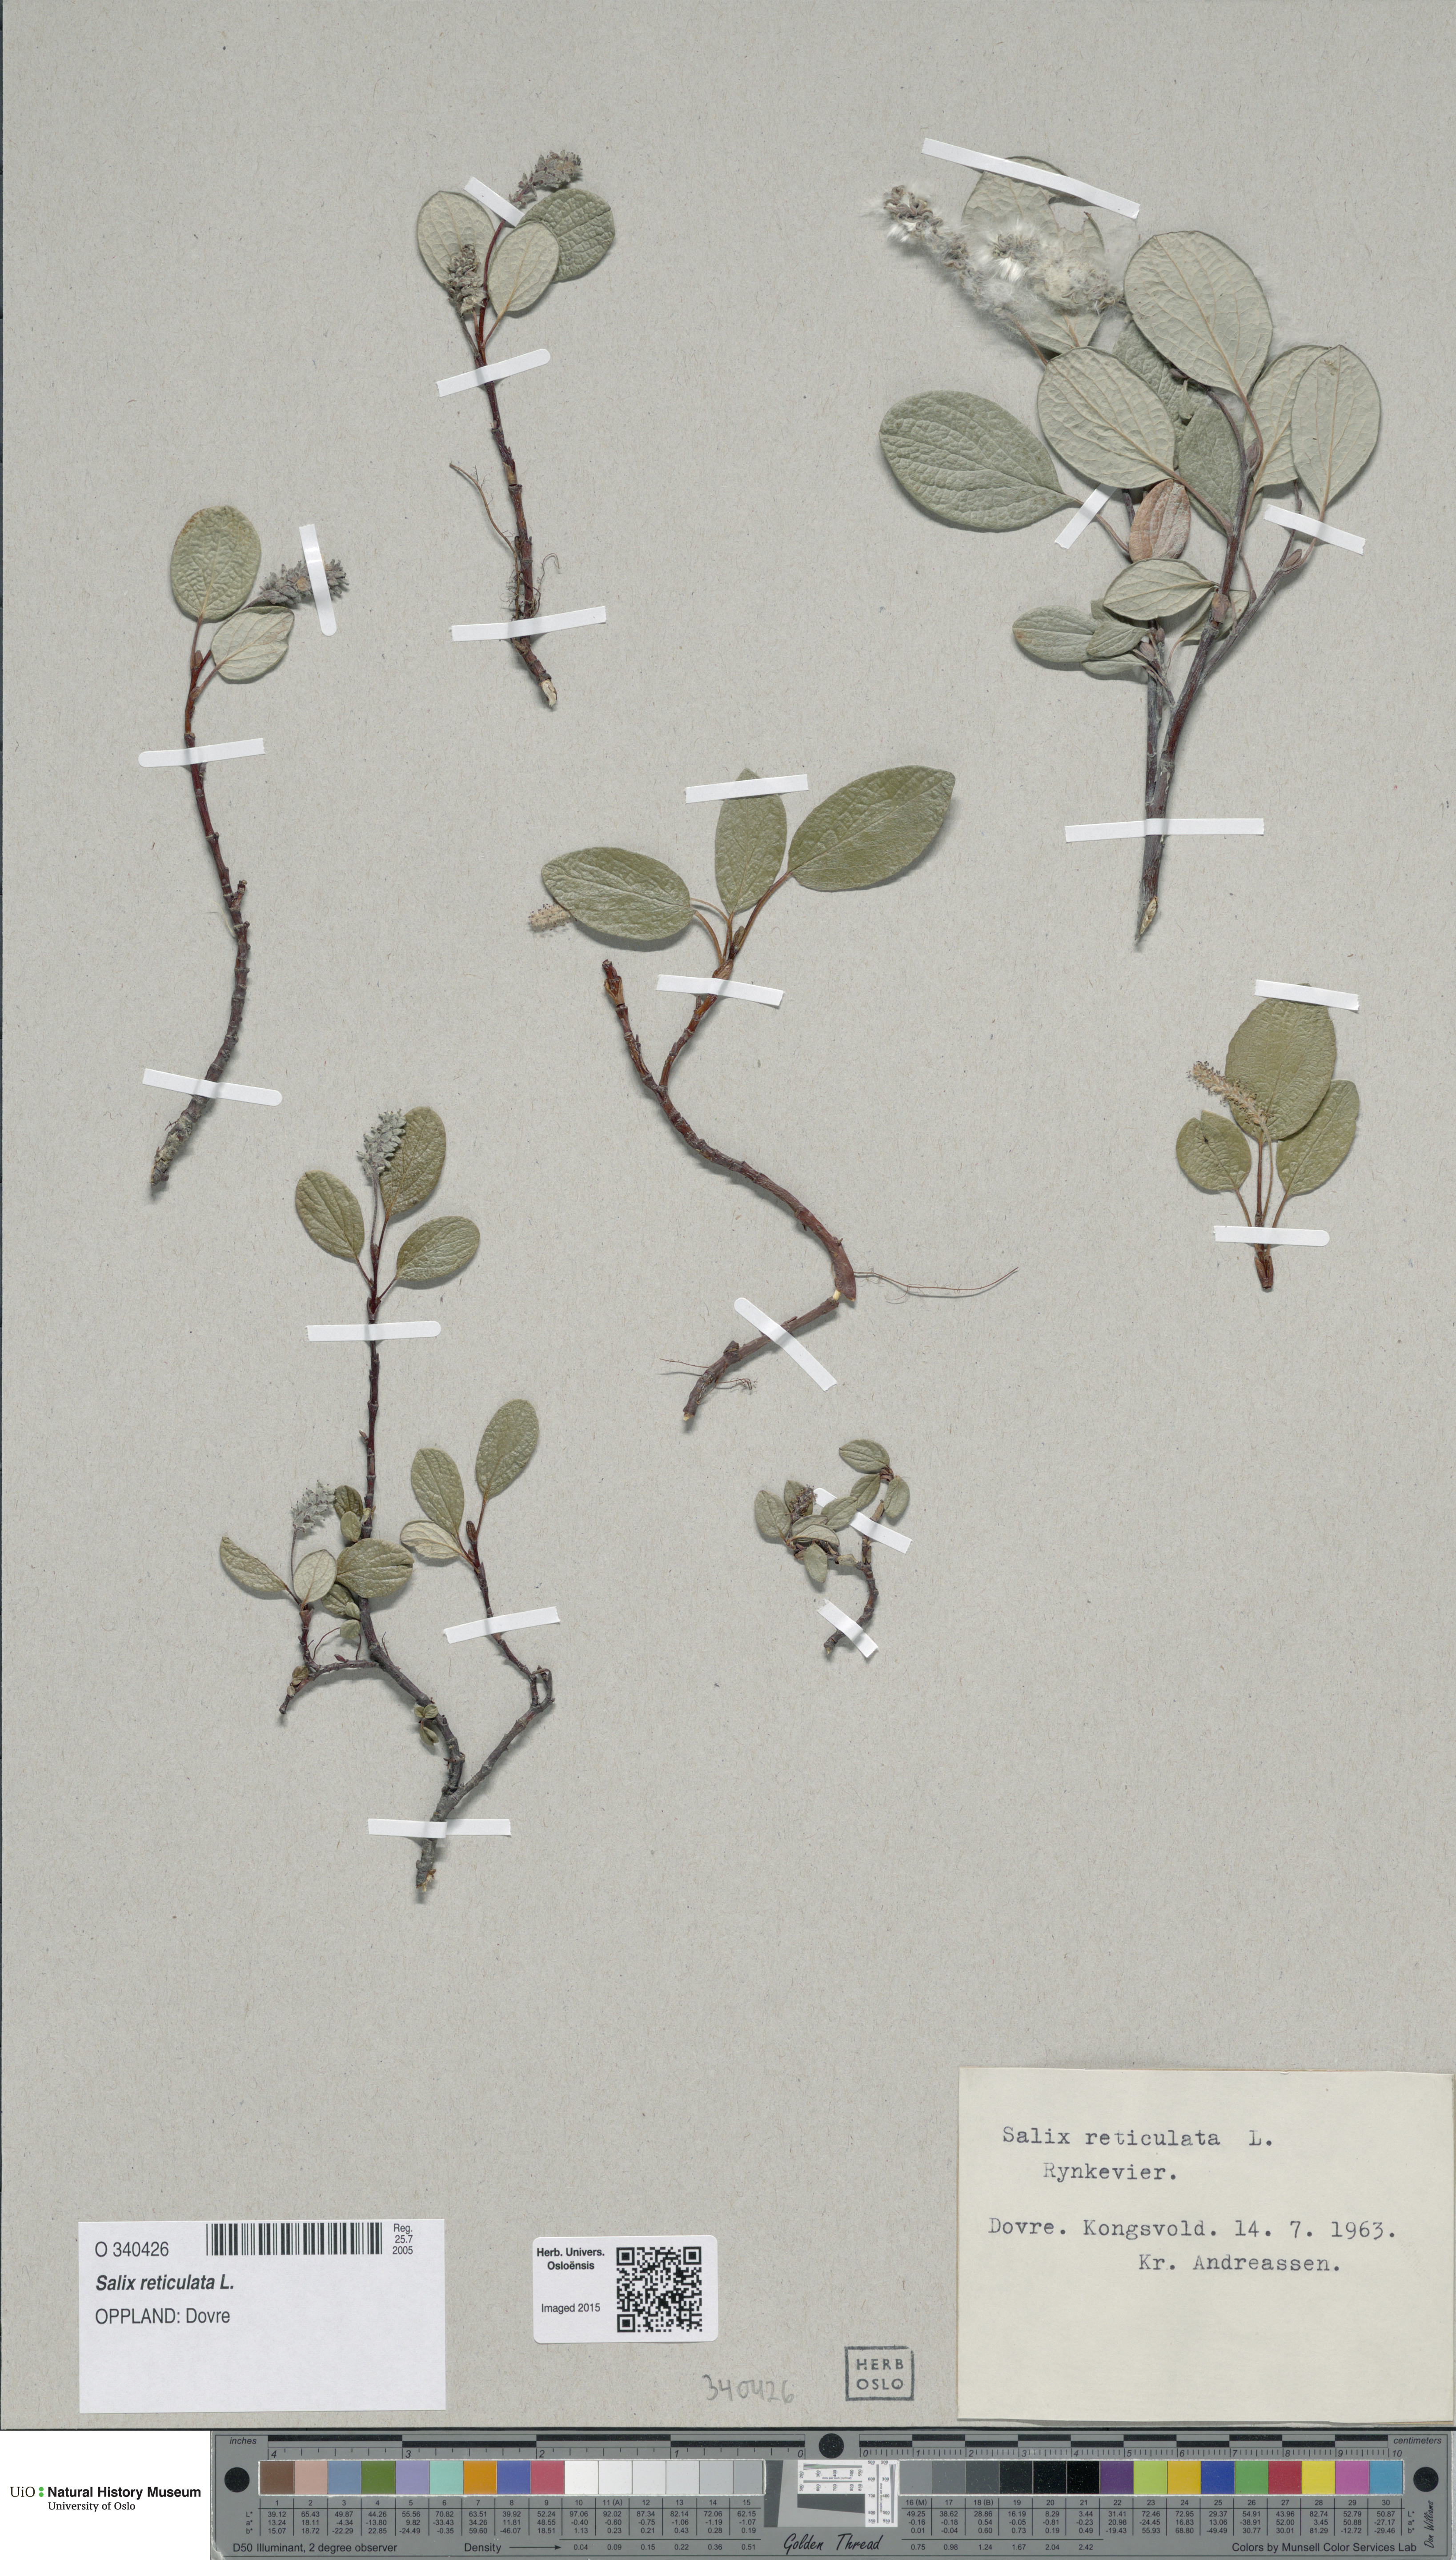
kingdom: Plantae
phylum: Tracheophyta
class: Magnoliopsida
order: Malpighiales
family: Salicaceae
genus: Salix
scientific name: Salix reticulata
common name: Net-leaved willow
